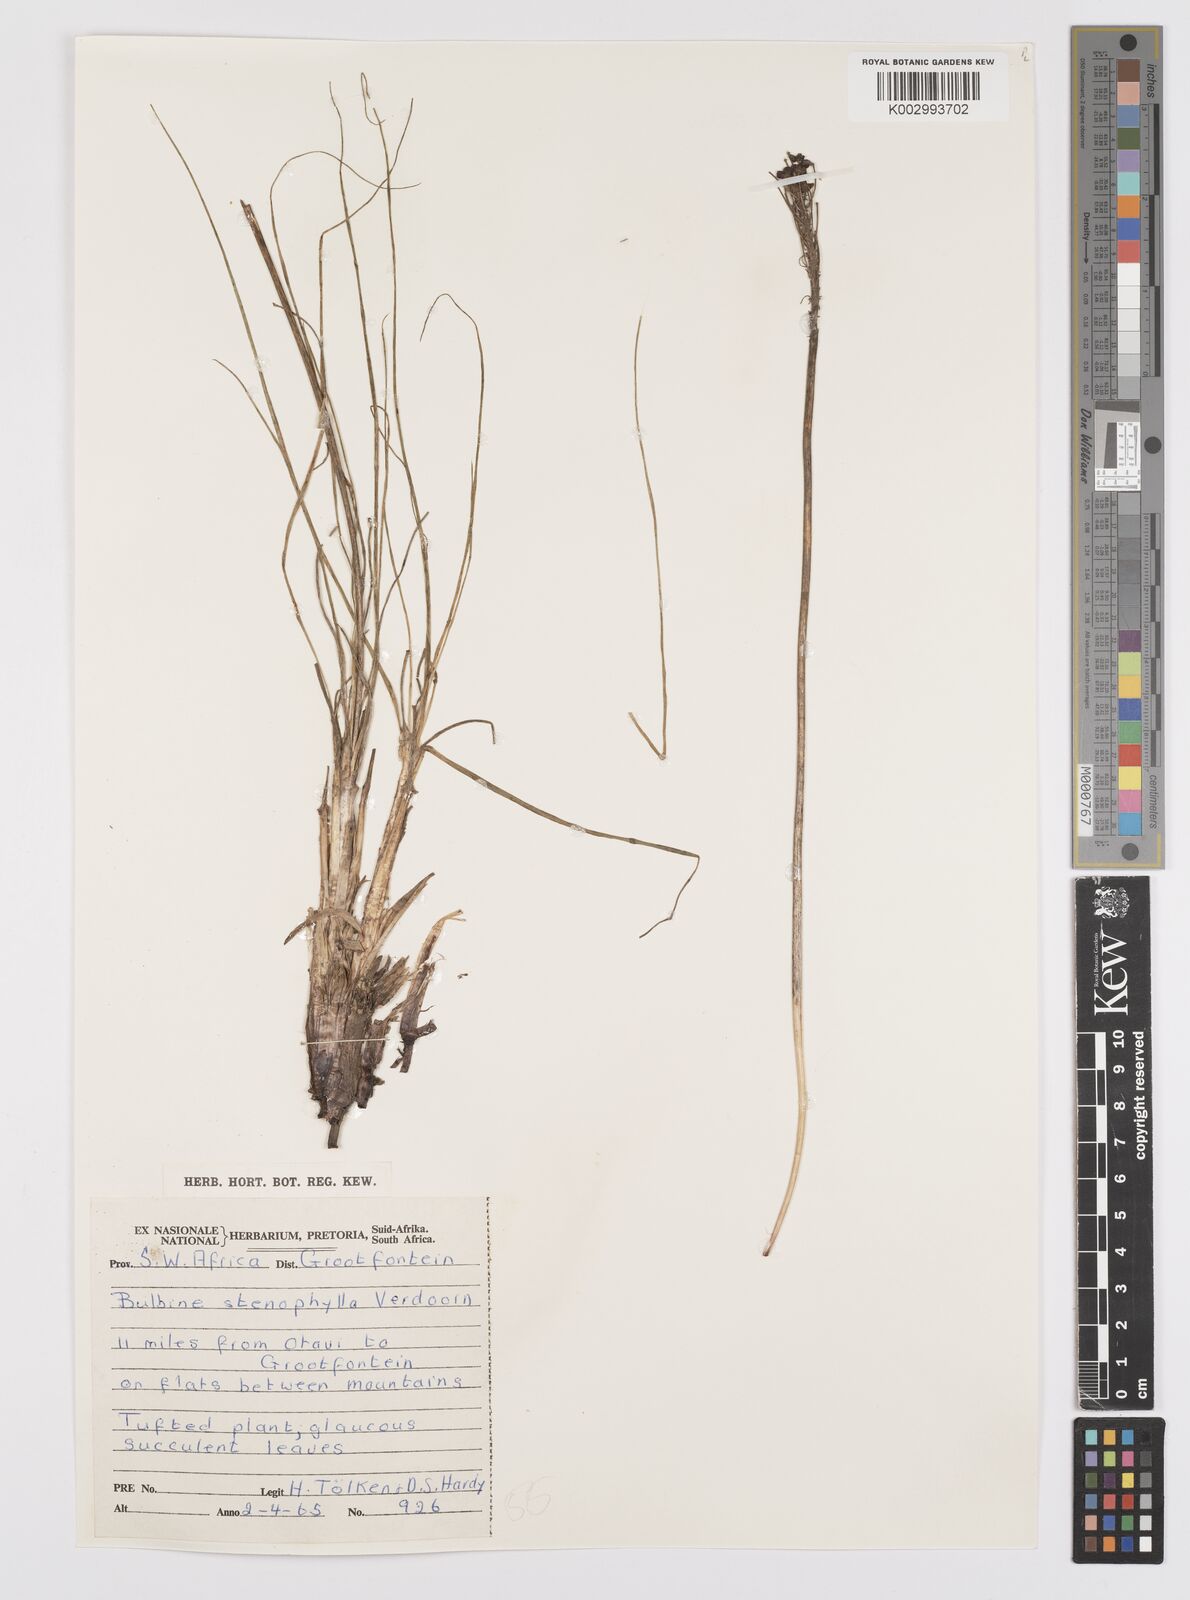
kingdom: Plantae
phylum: Tracheophyta
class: Liliopsida
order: Asparagales
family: Asphodelaceae
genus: Bulbine
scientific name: Bulbine capitata
